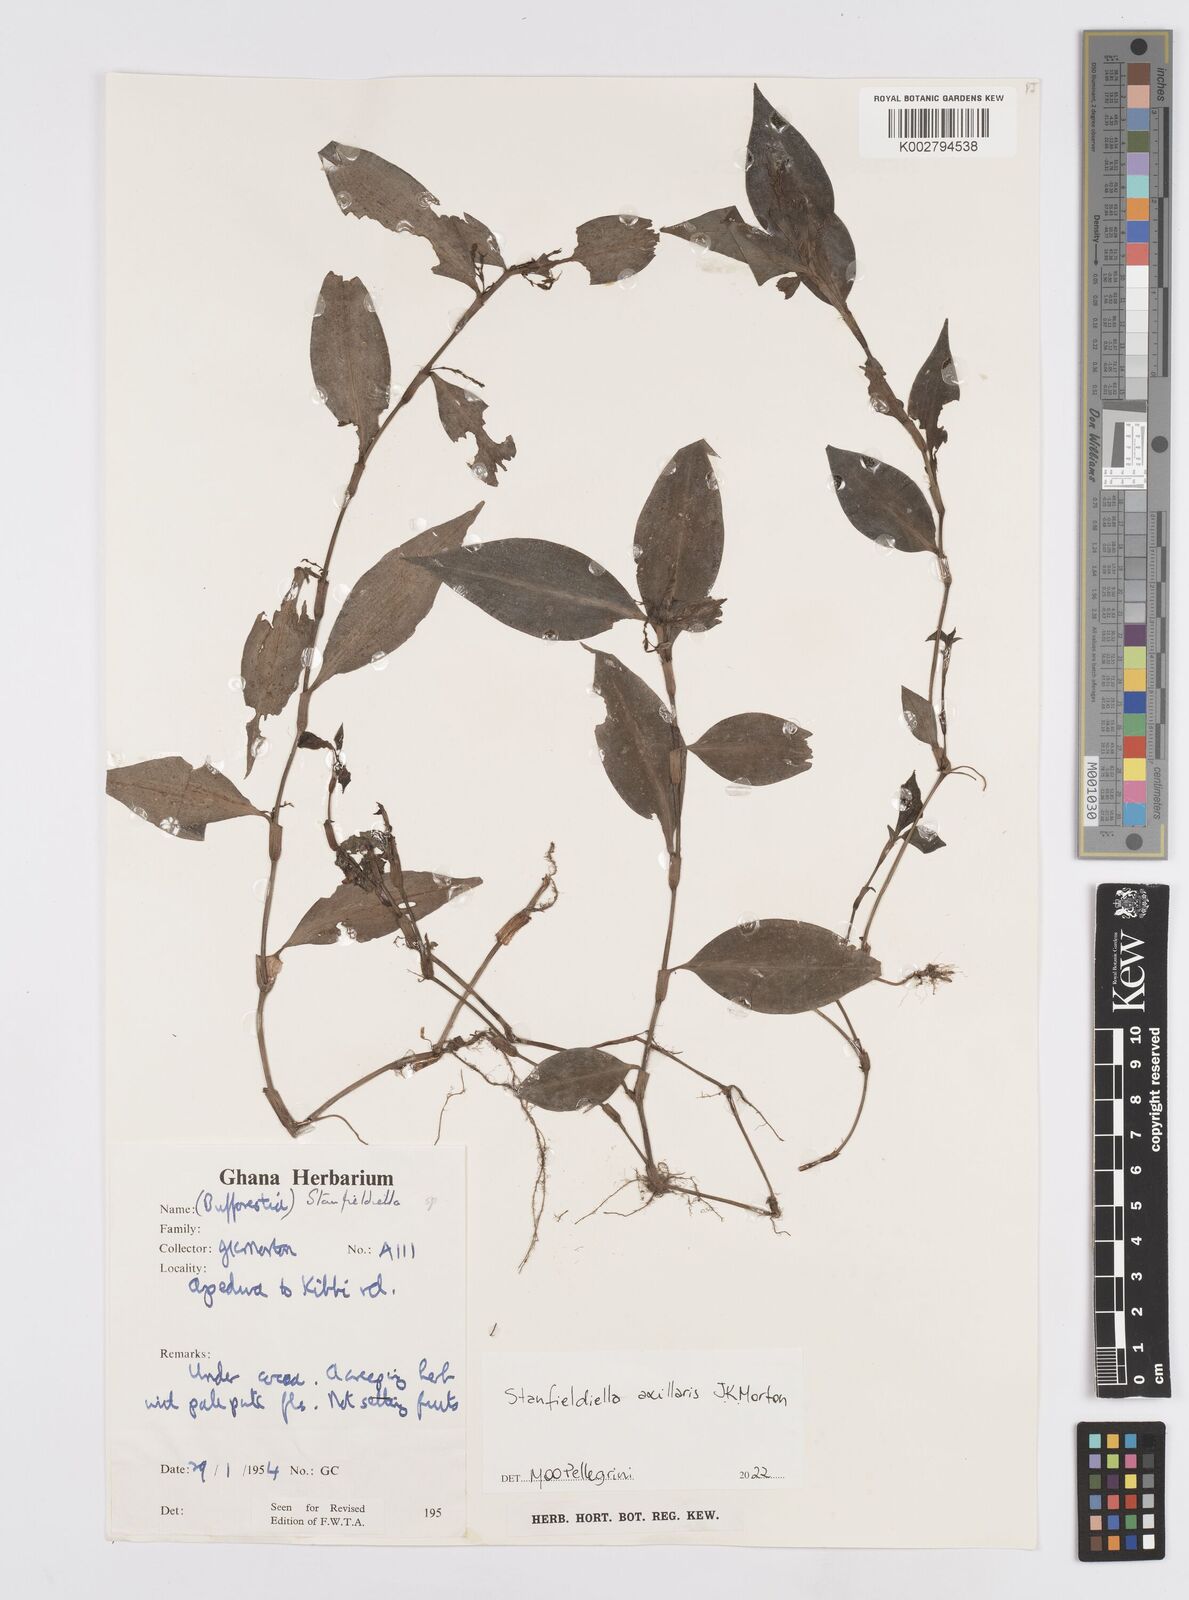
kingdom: Plantae
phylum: Tracheophyta
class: Liliopsida
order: Commelinales
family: Commelinaceae
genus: Stanfieldiella
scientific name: Stanfieldiella axillaris
